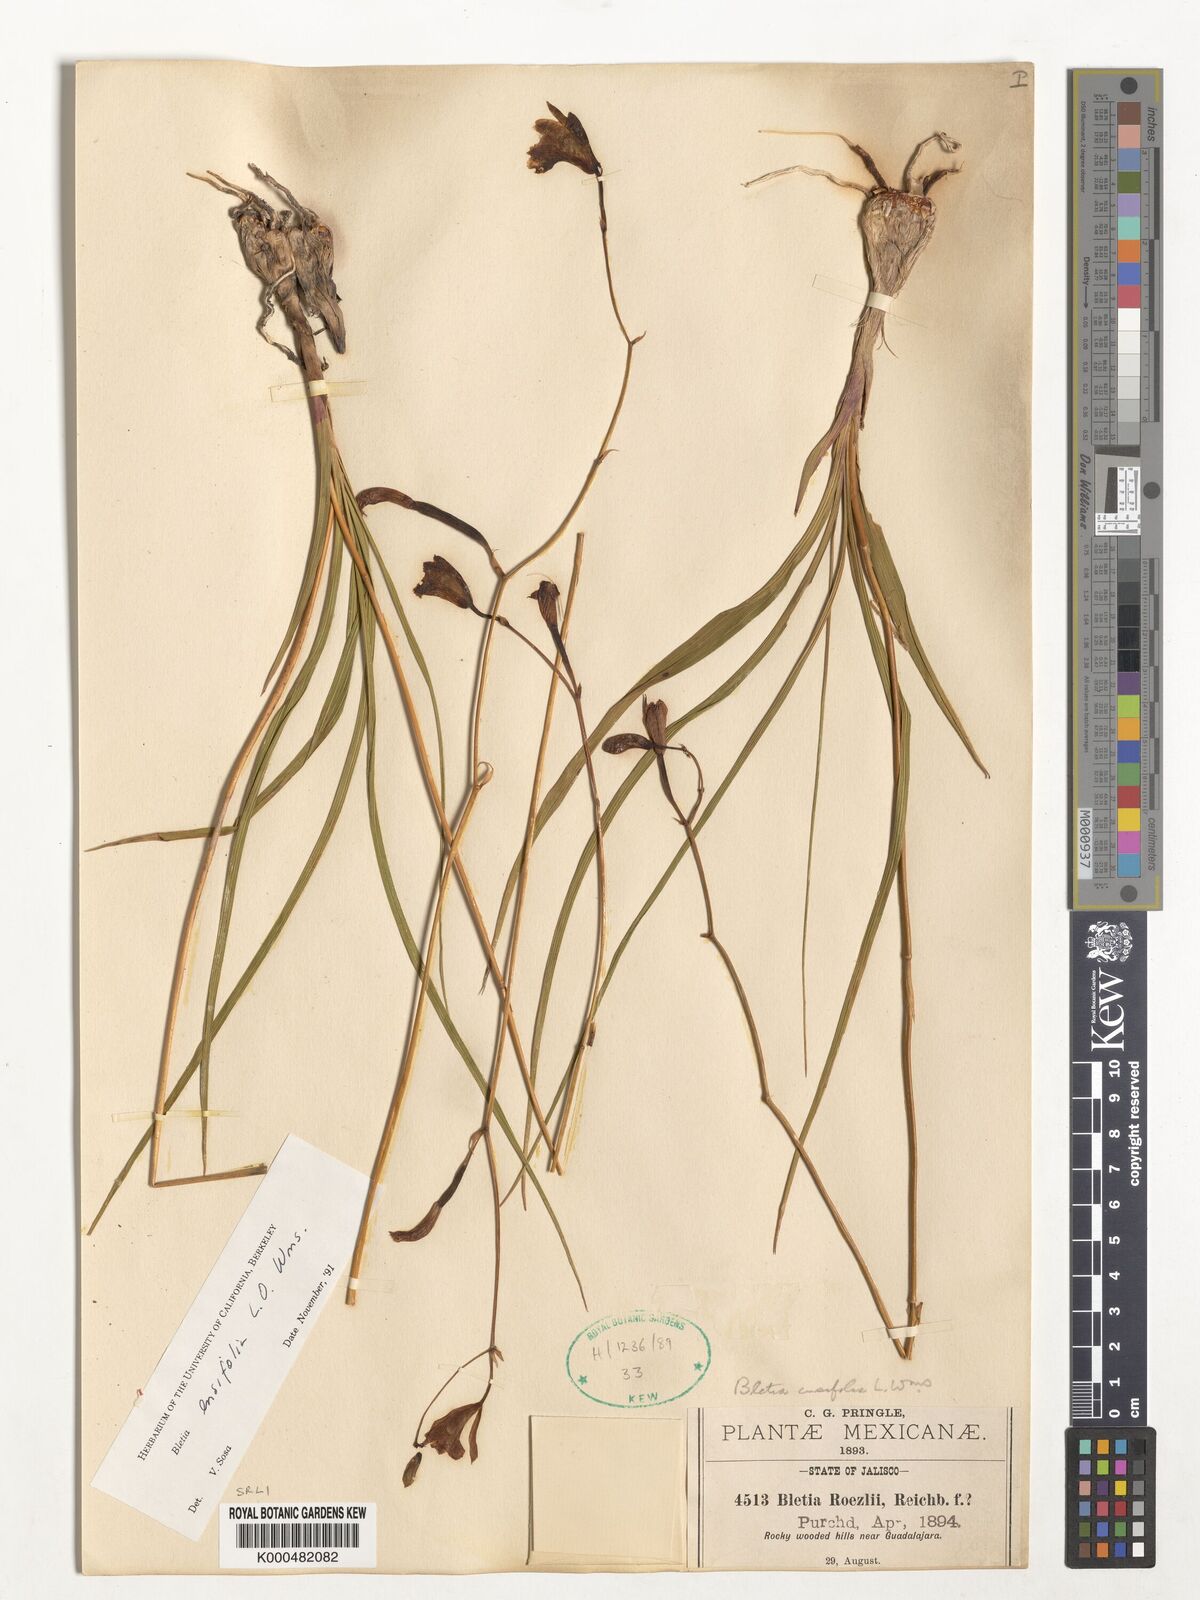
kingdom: Plantae
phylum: Tracheophyta
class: Liliopsida
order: Asparagales
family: Orchidaceae
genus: Bletia
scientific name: Bletia ensifolia
